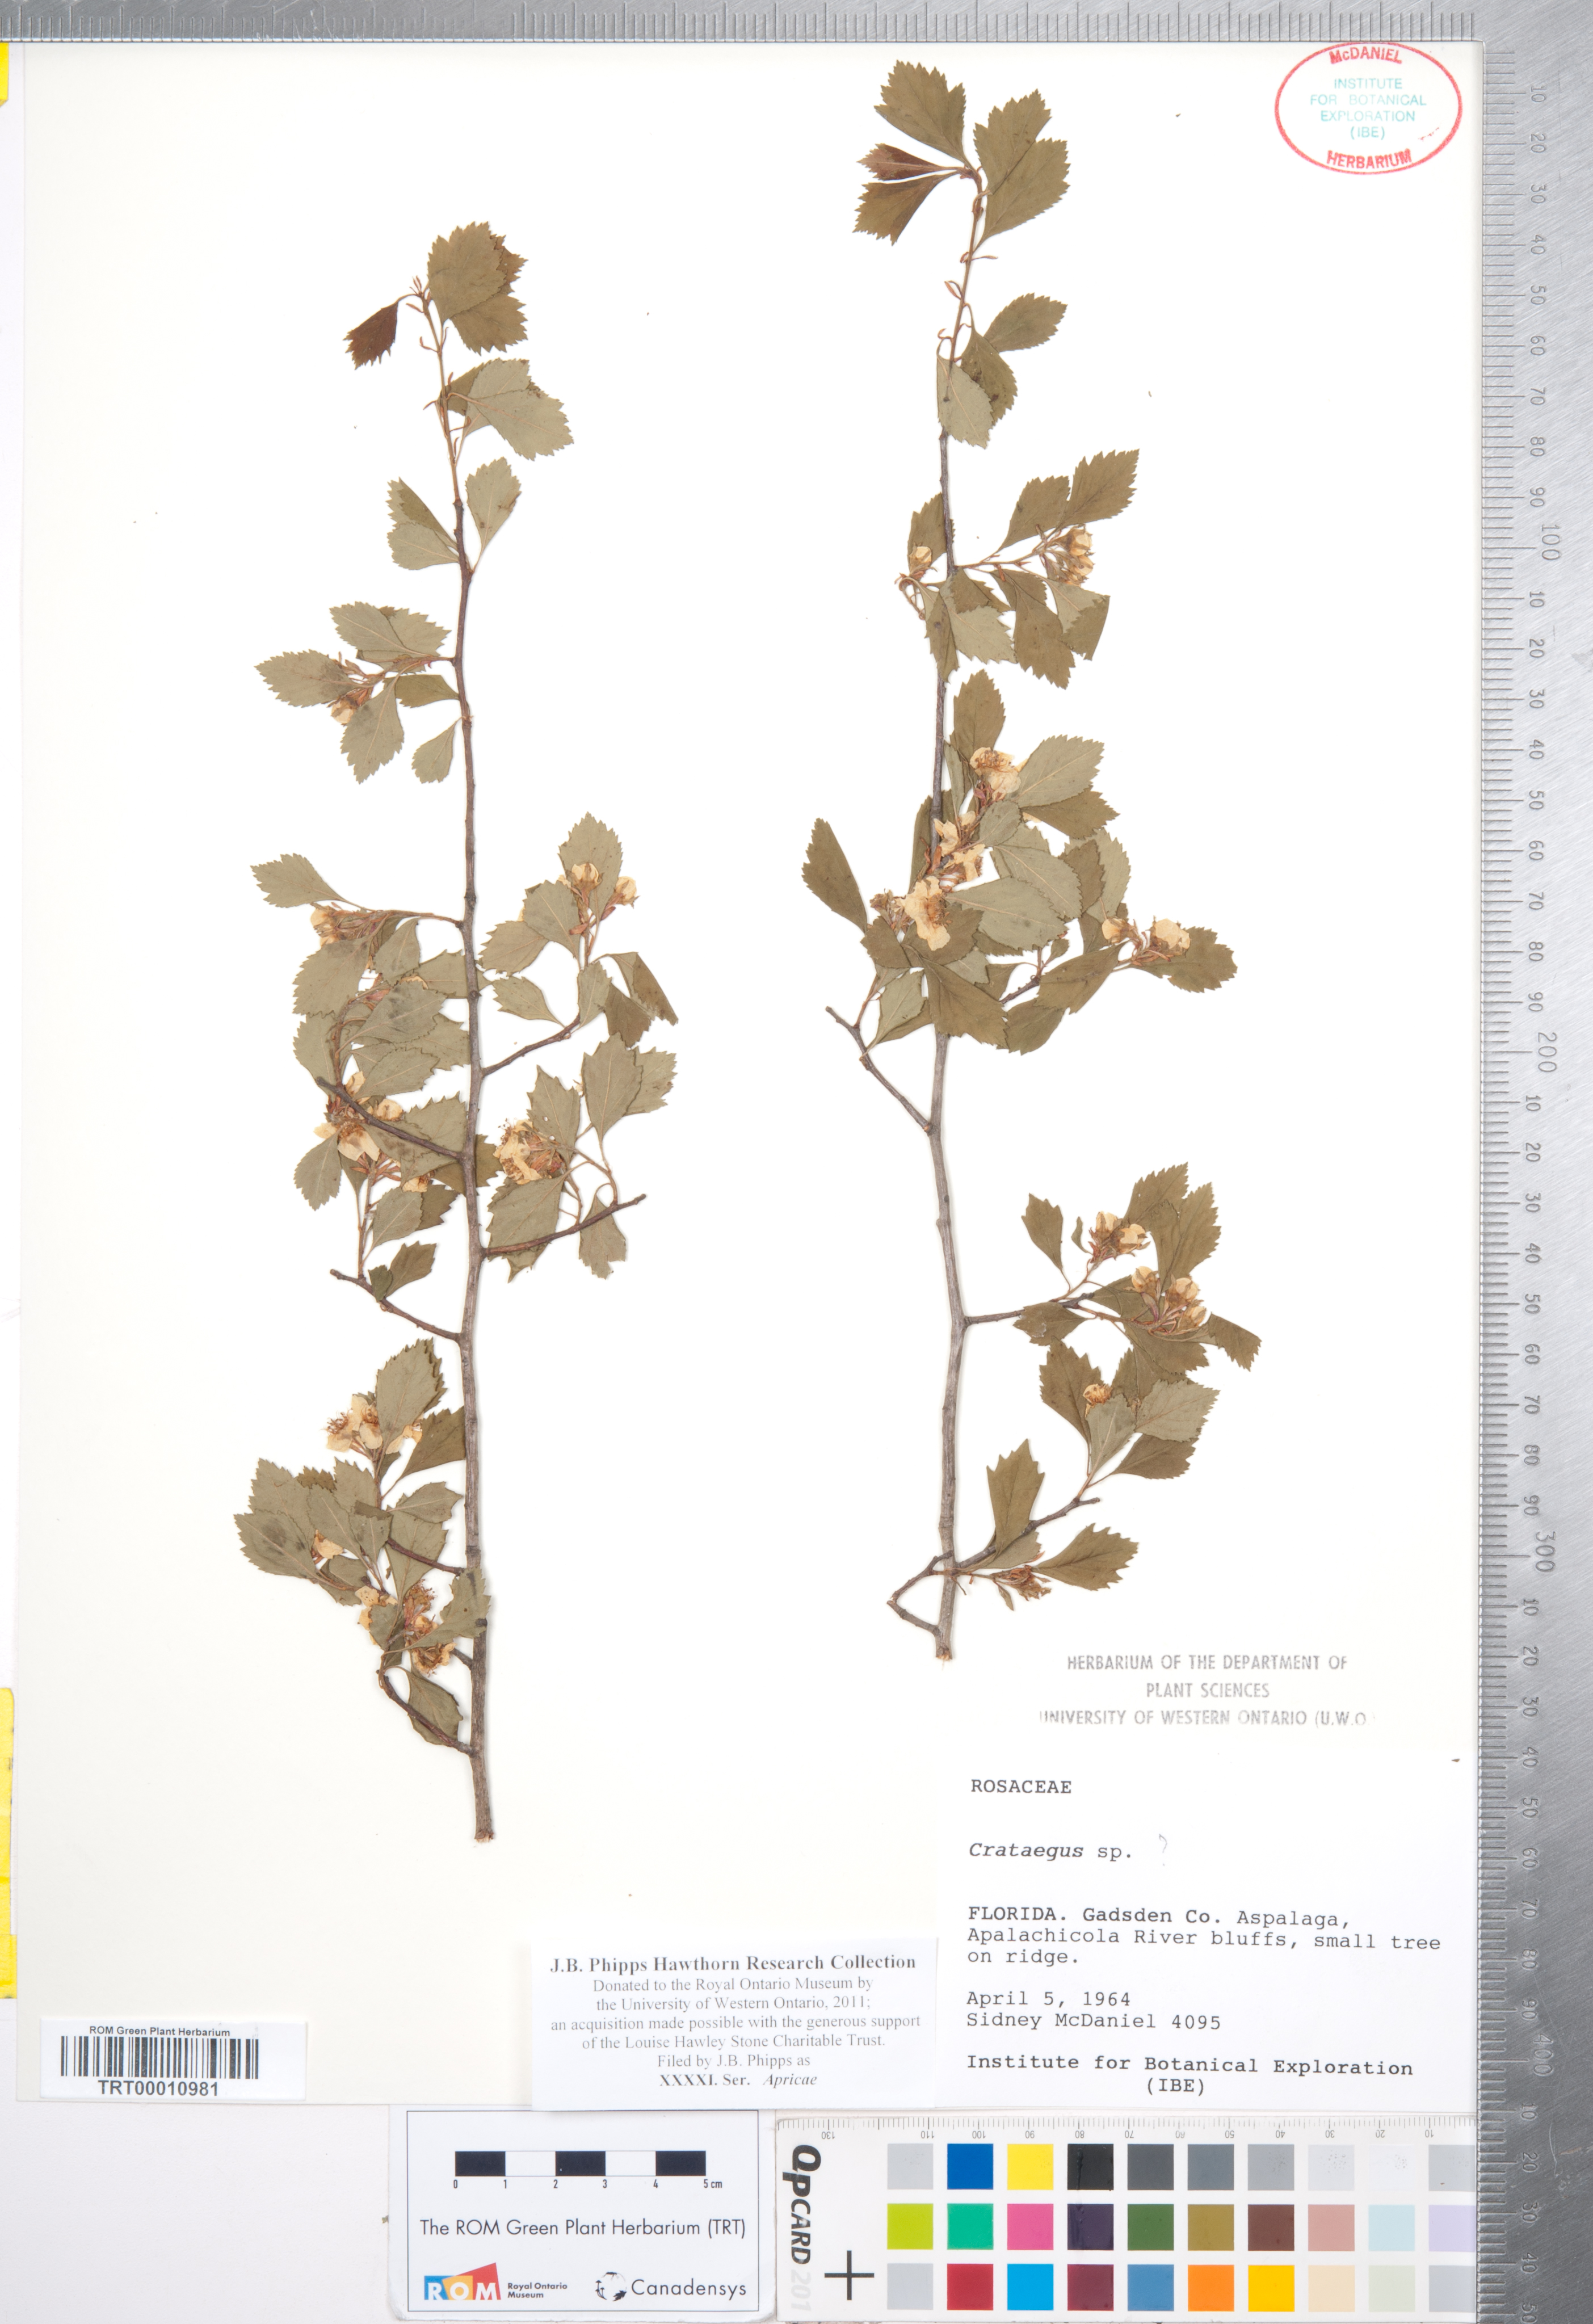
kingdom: Plantae
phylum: Tracheophyta
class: Magnoliopsida
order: Rosales
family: Rosaceae
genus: Crataegus
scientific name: Crataegus
